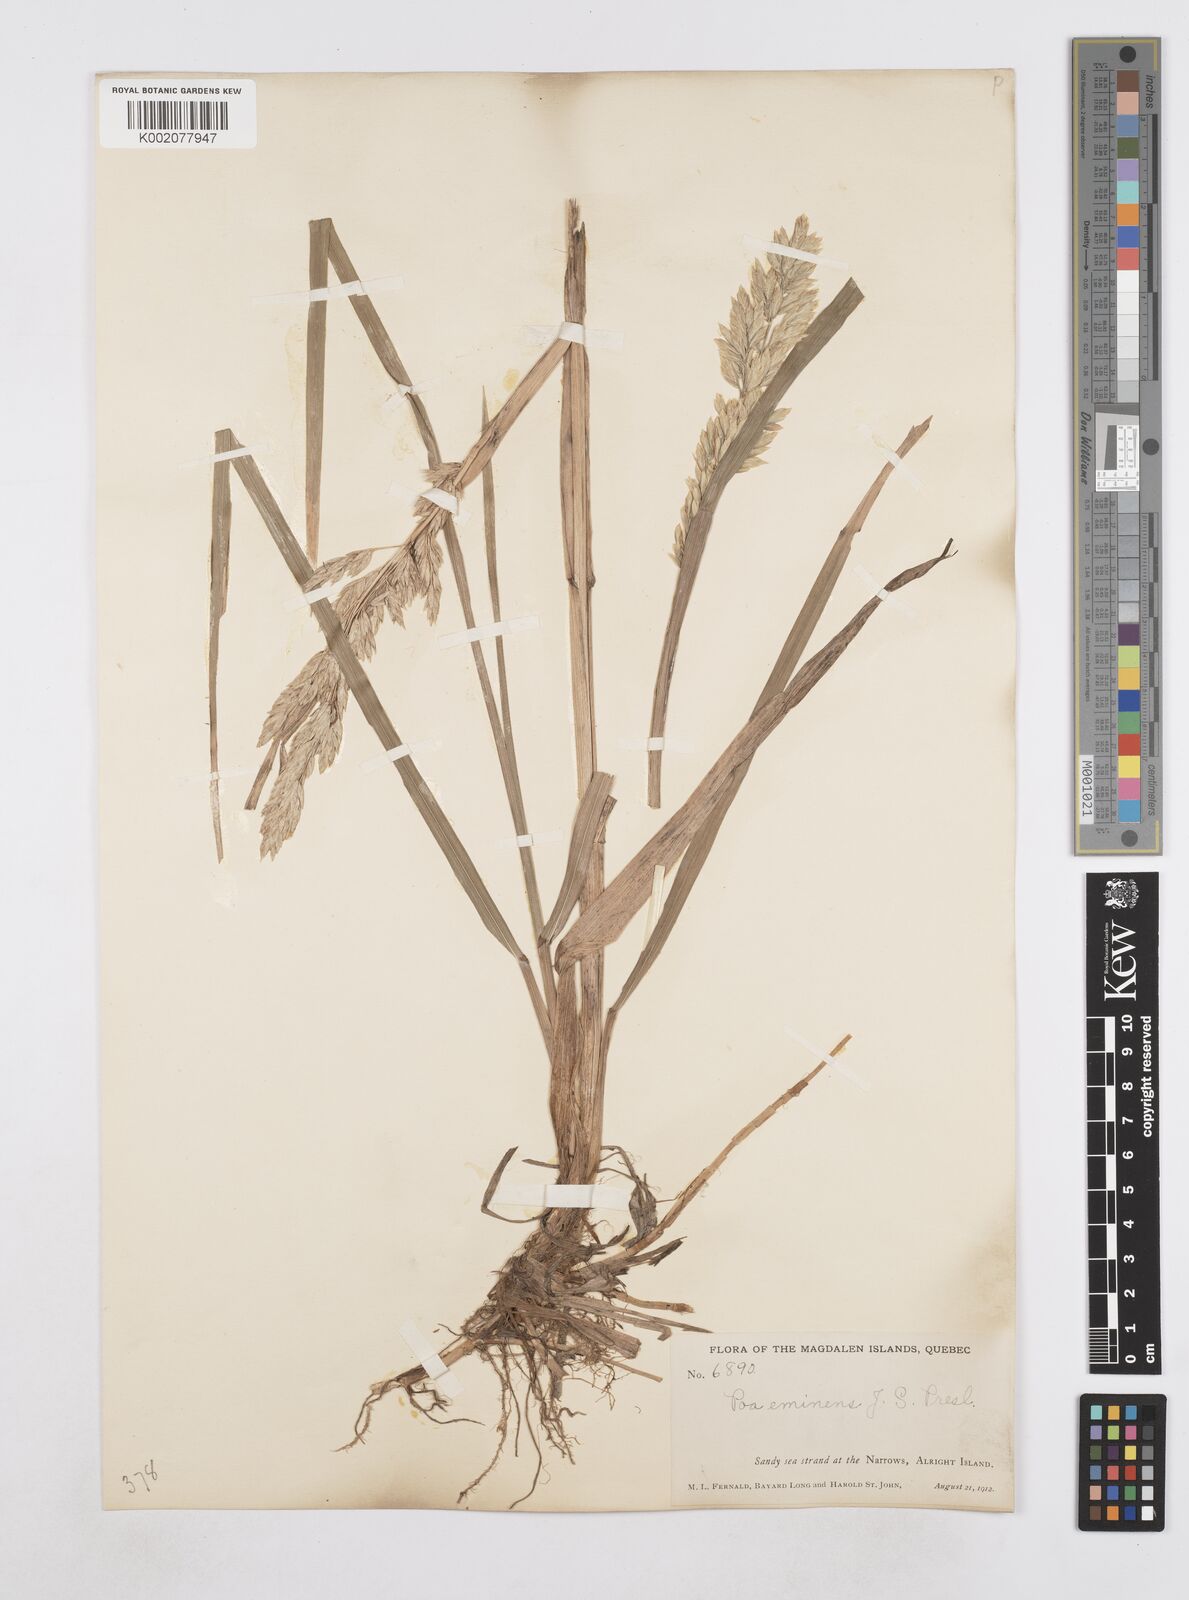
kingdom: Plantae
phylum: Tracheophyta
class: Liliopsida
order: Poales
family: Poaceae
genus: Arctopoa
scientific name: Arctopoa eminens
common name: Eminent bluegrass
